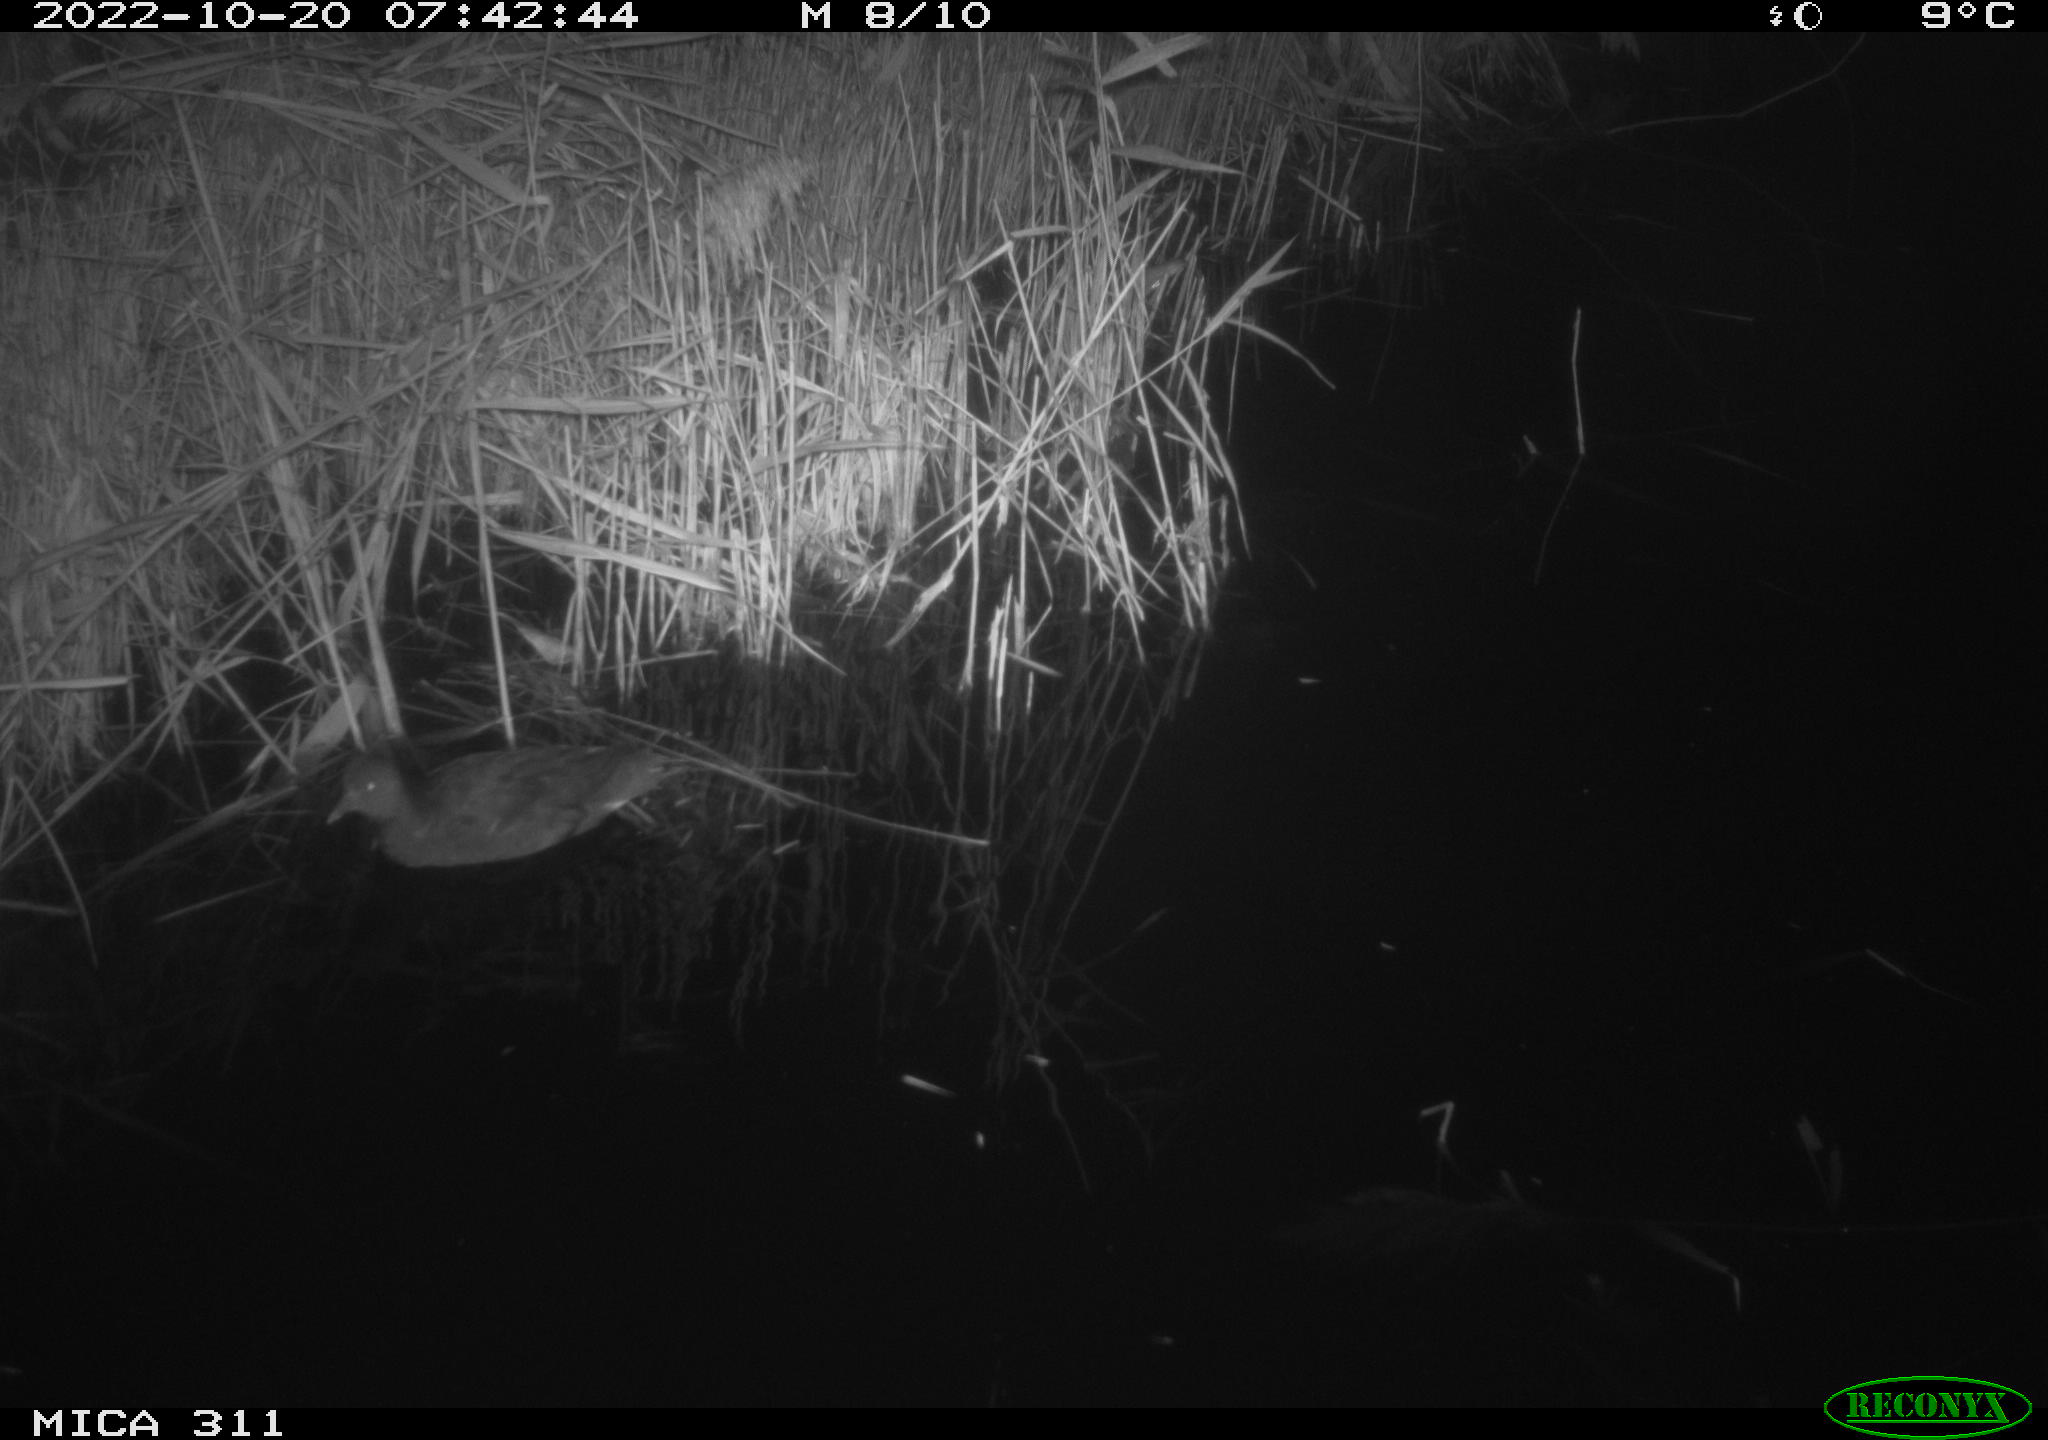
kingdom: Animalia
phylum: Chordata
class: Aves
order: Anseriformes
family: Anatidae
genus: Anas
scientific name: Anas
